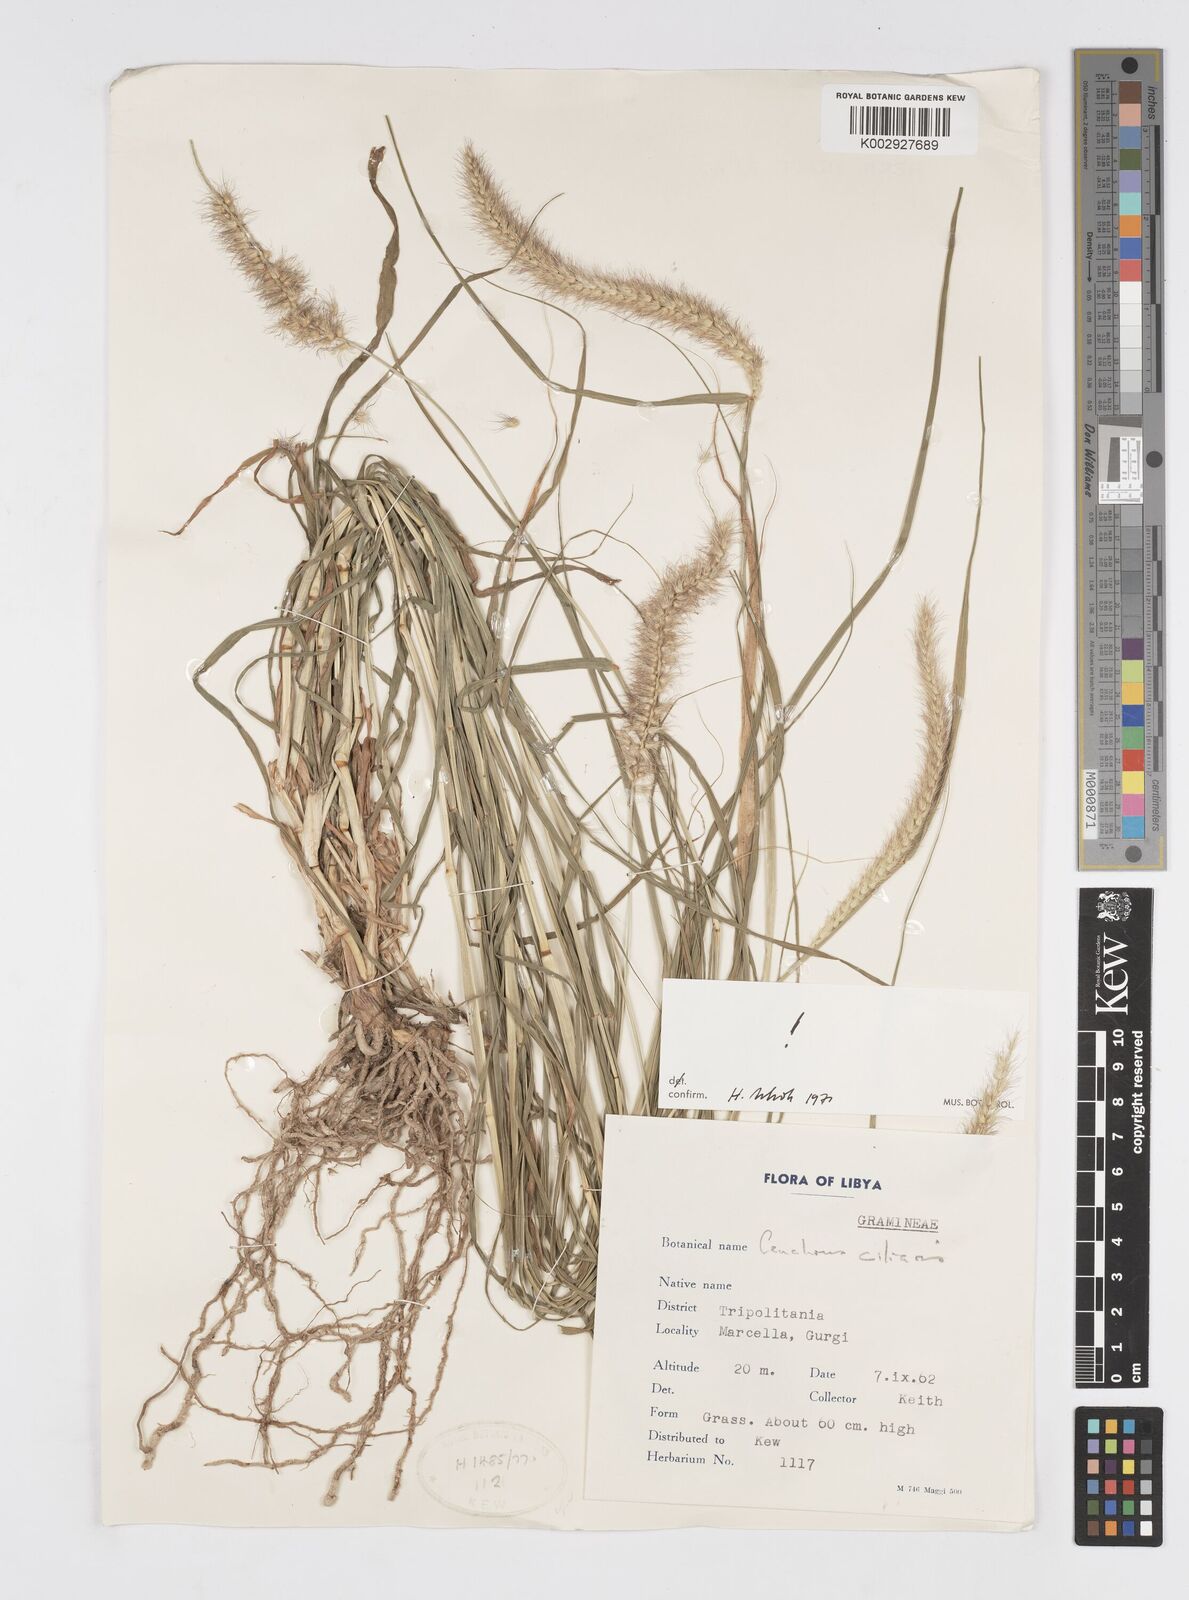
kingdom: Plantae
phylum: Tracheophyta
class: Liliopsida
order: Poales
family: Poaceae
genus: Cenchrus
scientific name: Cenchrus ciliaris
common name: Buffelgrass
